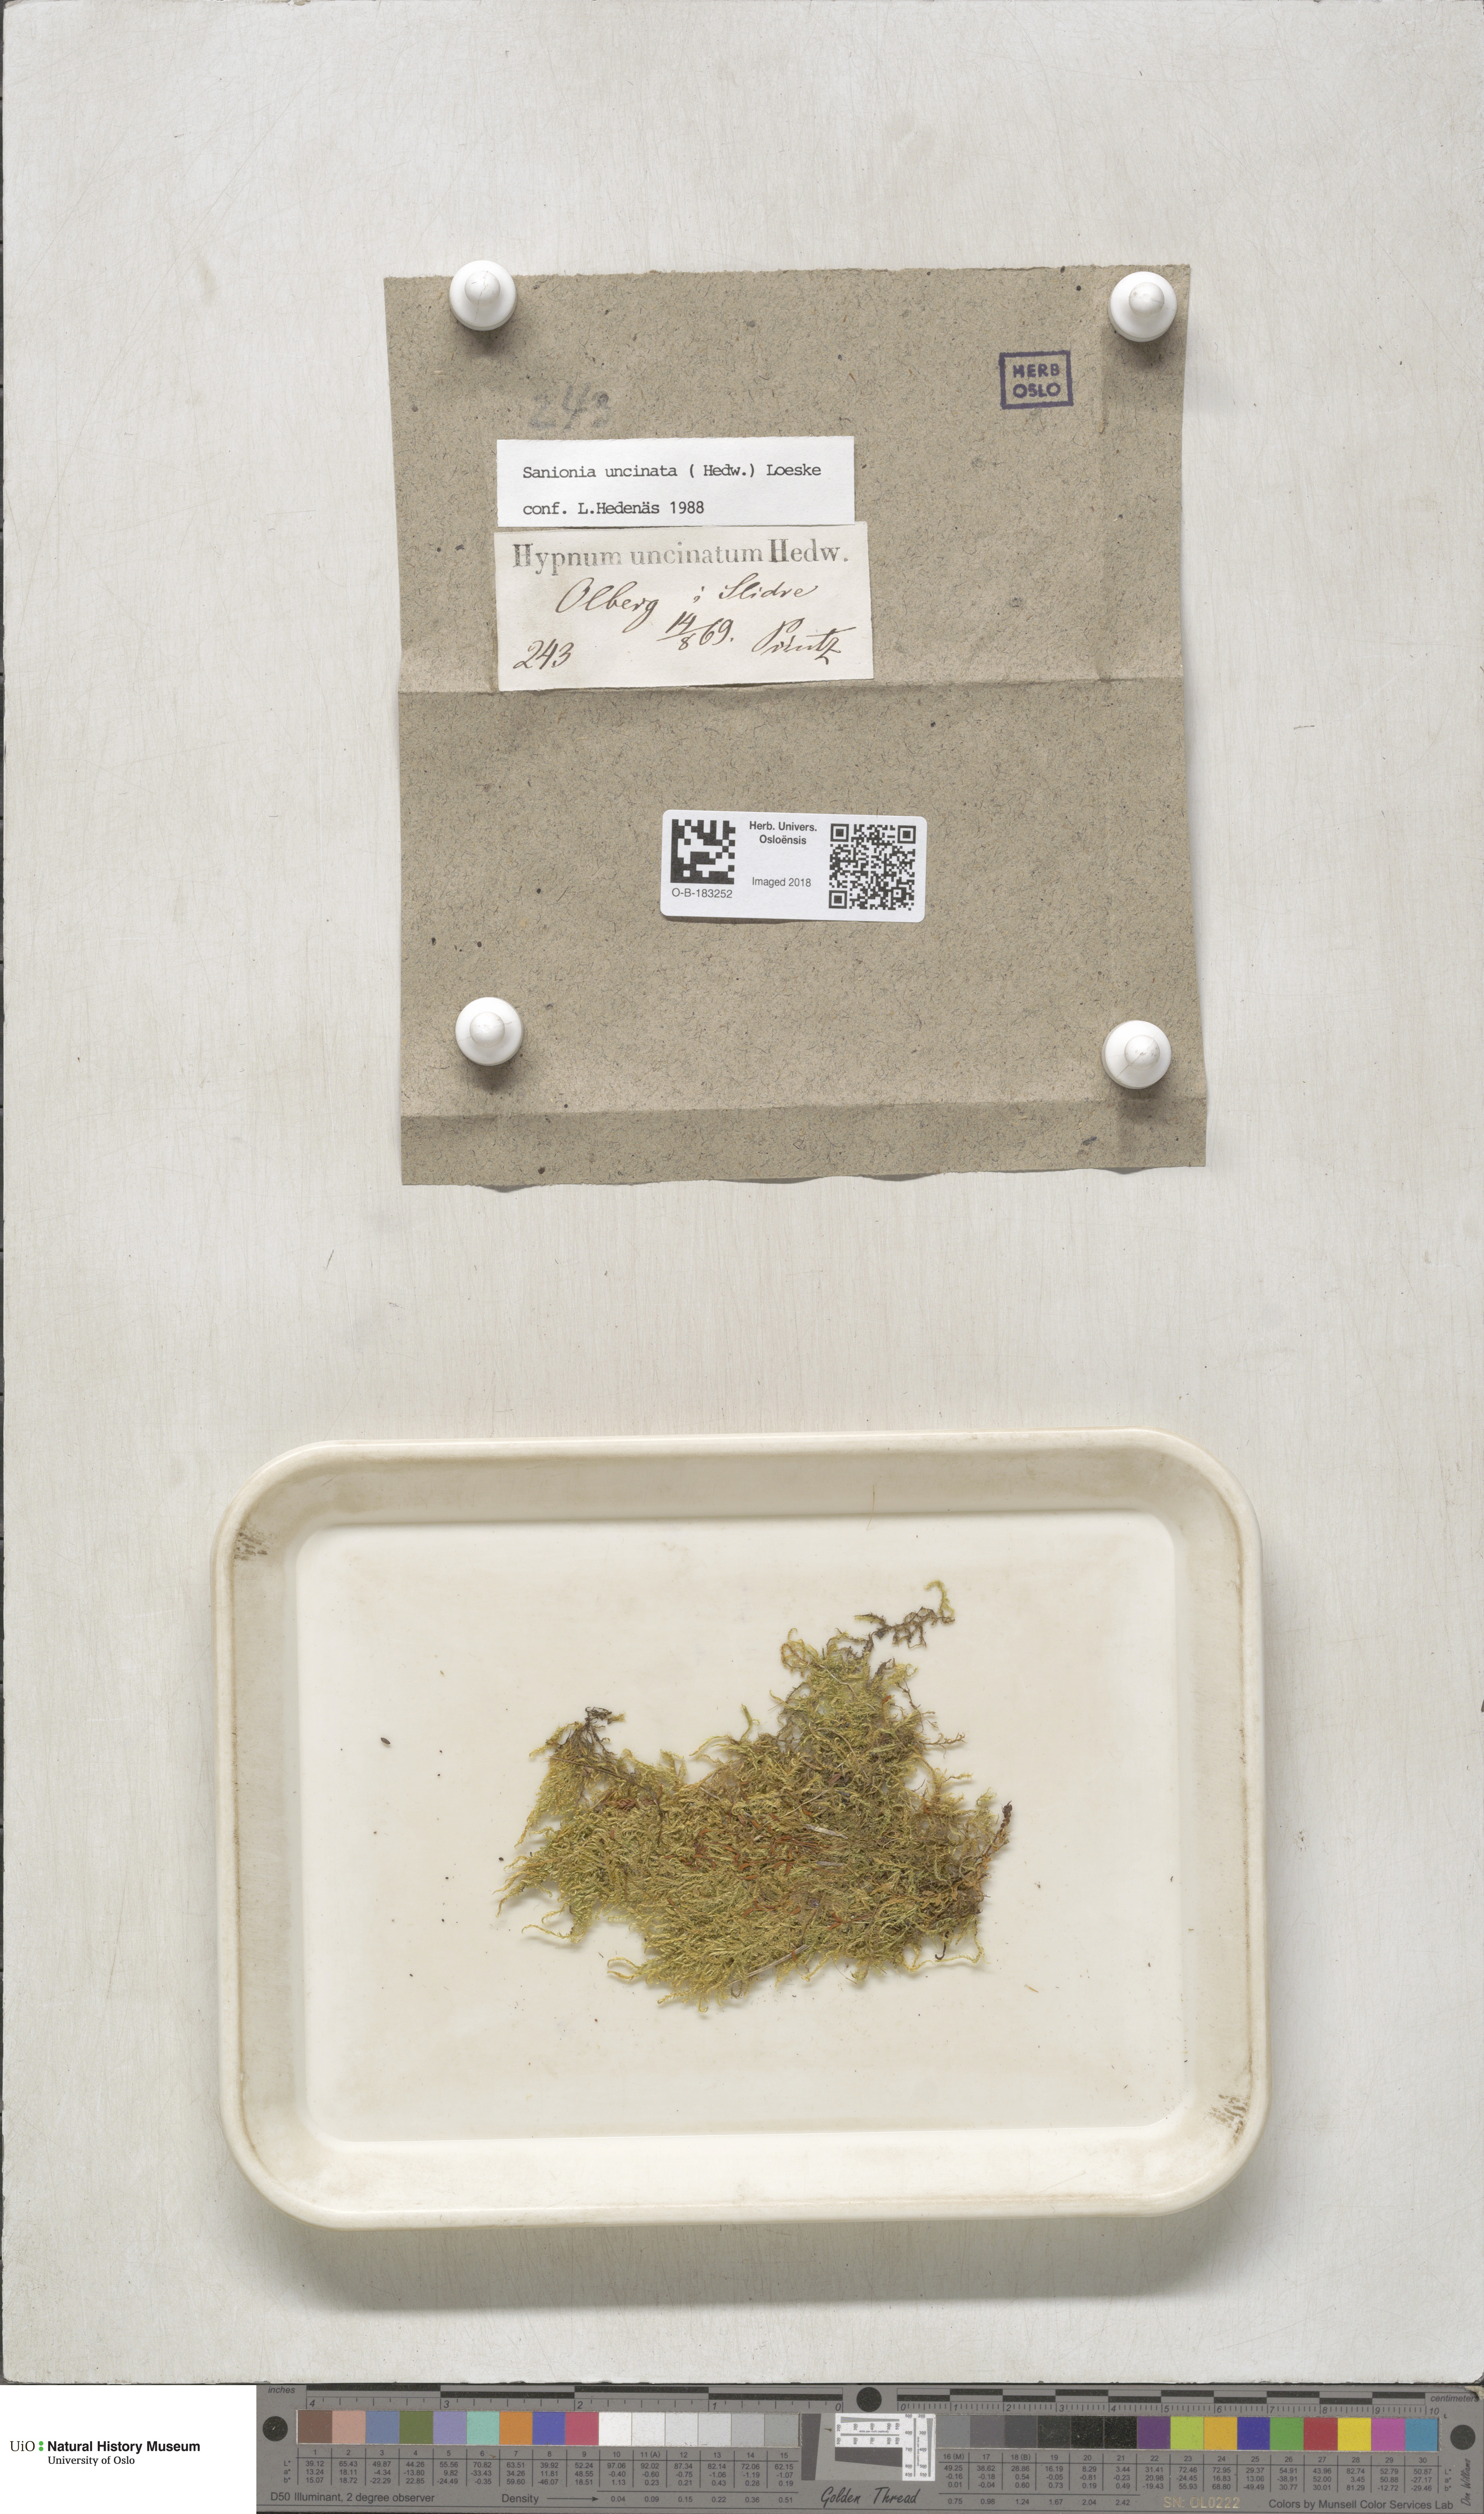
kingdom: Plantae
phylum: Bryophyta
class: Bryopsida
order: Hypnales
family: Scorpidiaceae
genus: Sanionia
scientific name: Sanionia uncinata
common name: Sickle moss
